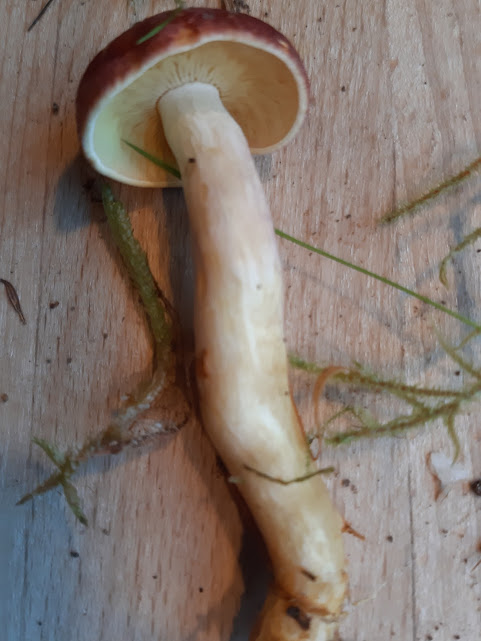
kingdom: Fungi
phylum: Basidiomycota
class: Agaricomycetes
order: Agaricales
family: Tricholomataceae
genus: Tricholomopsis
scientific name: Tricholomopsis rutilans
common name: purpur-væbnerhat
